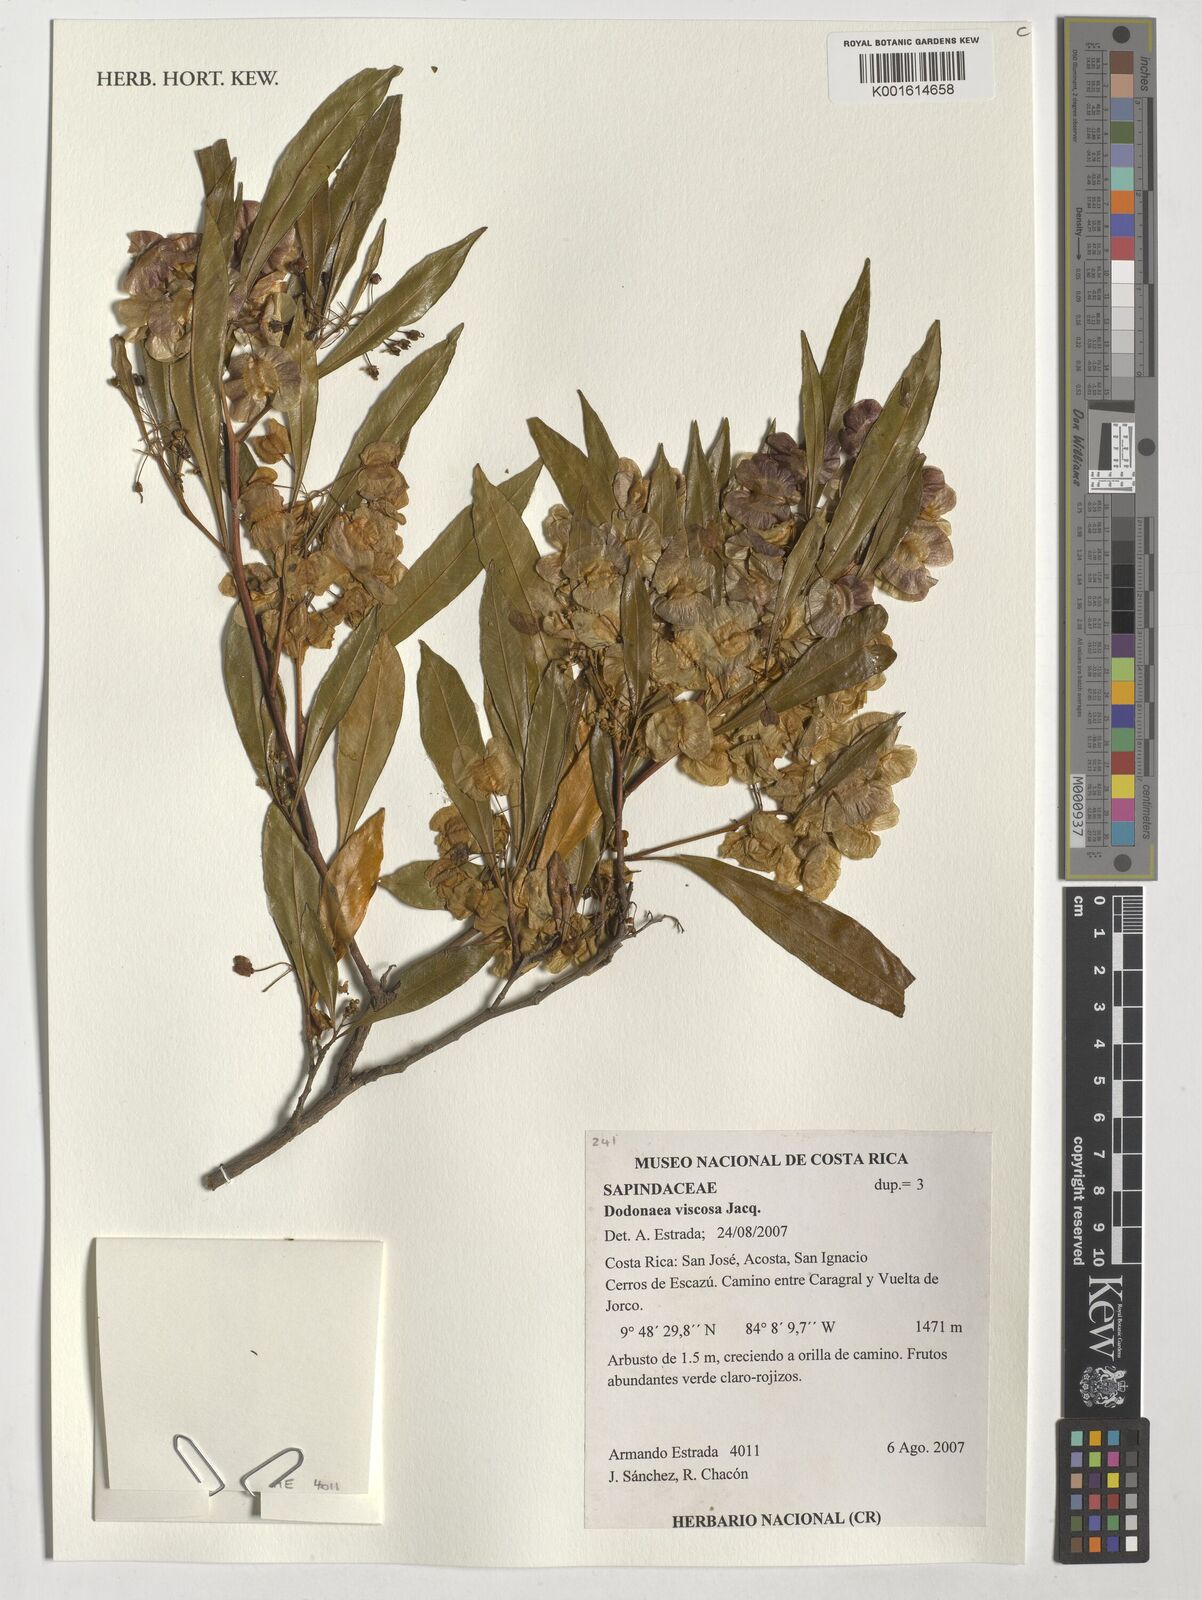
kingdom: Plantae
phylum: Tracheophyta
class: Magnoliopsida
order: Sapindales
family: Sapindaceae
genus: Dodonaea
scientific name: Dodonaea viscosa
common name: Hopbush
